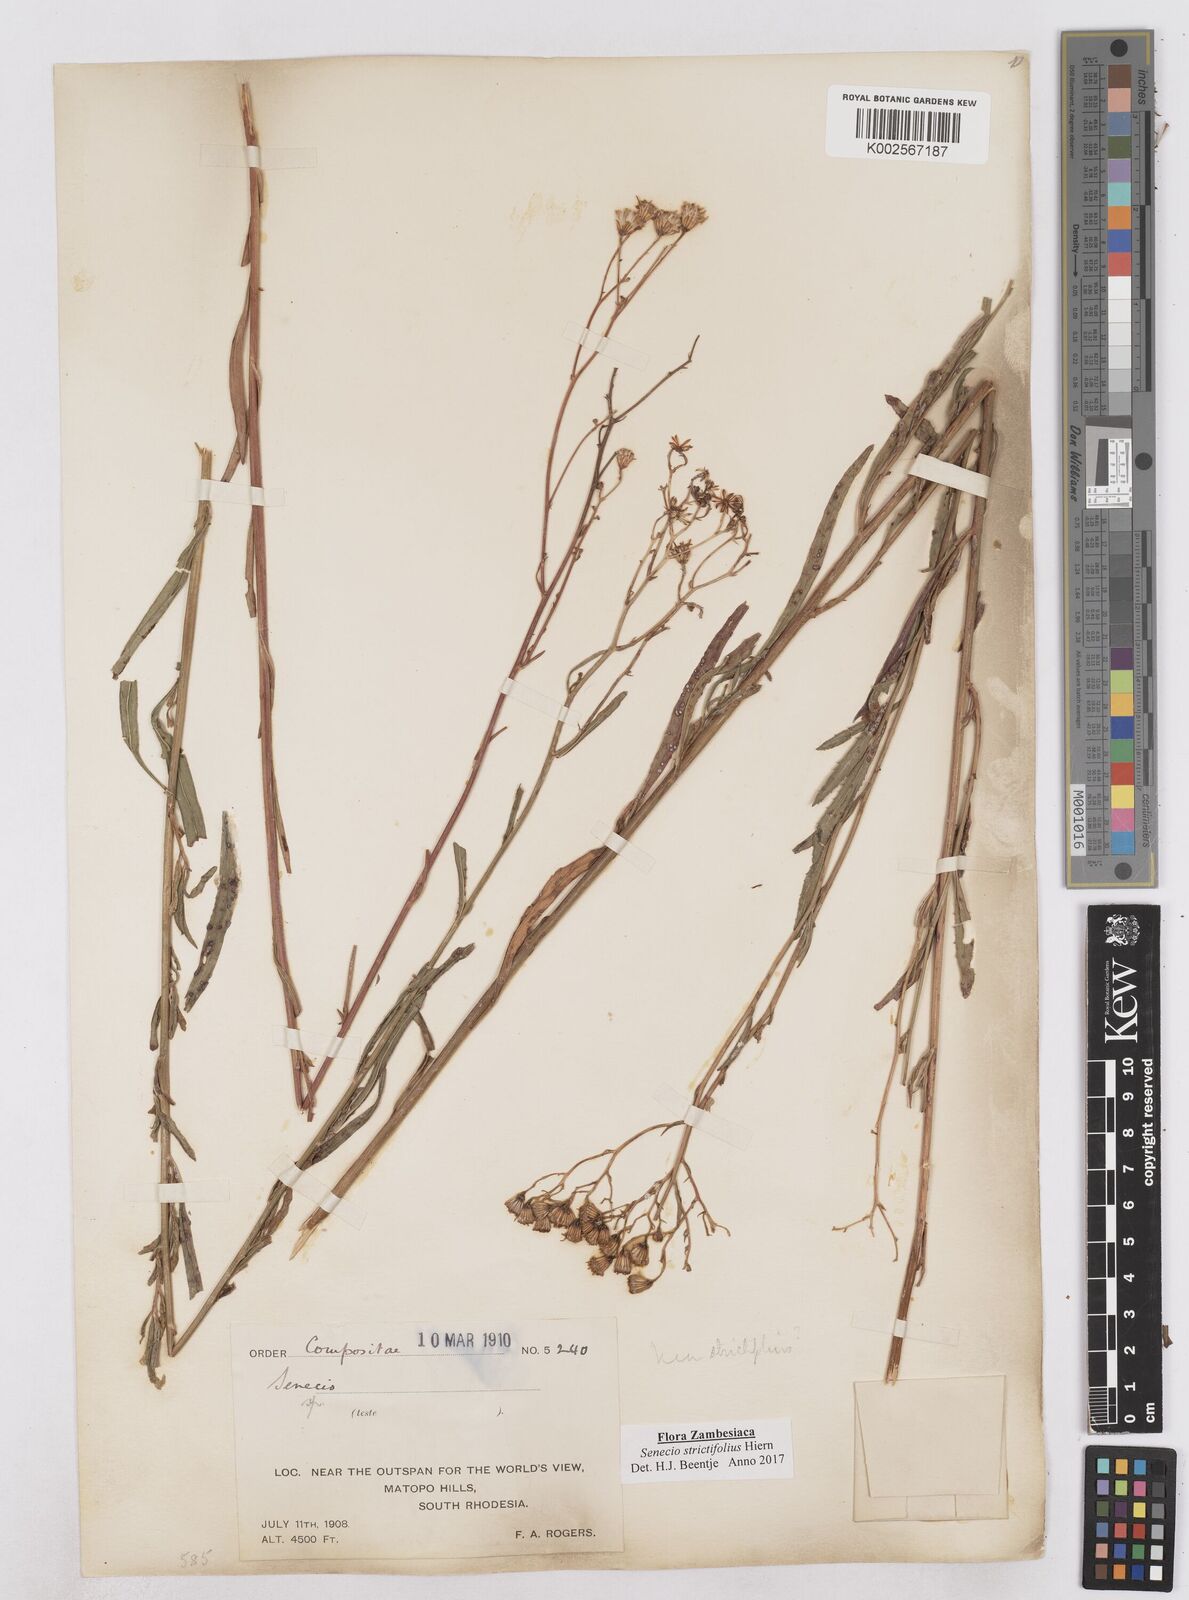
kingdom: Plantae
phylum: Tracheophyta
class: Magnoliopsida
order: Asterales
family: Asteraceae
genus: Senecio
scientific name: Senecio strictifolius
